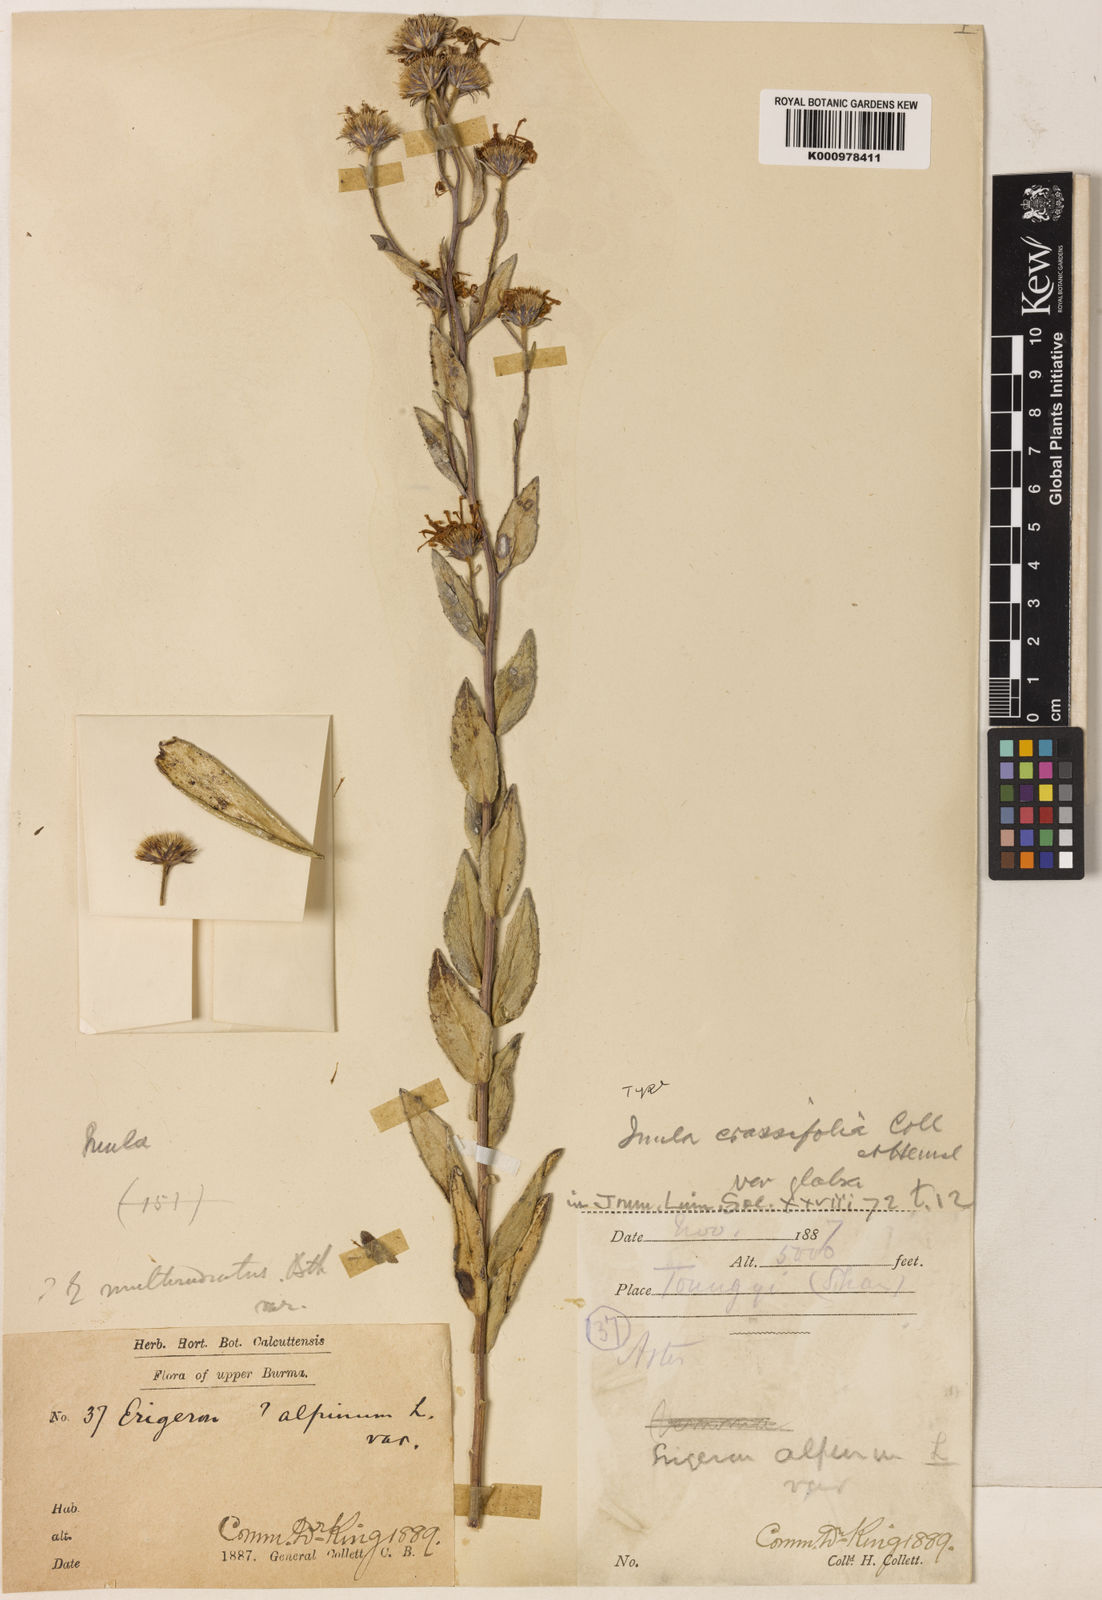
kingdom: Plantae
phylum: Tracheophyta
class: Magnoliopsida
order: Asterales
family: Asteraceae
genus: Duhaldea
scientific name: Duhaldea cuspidata
